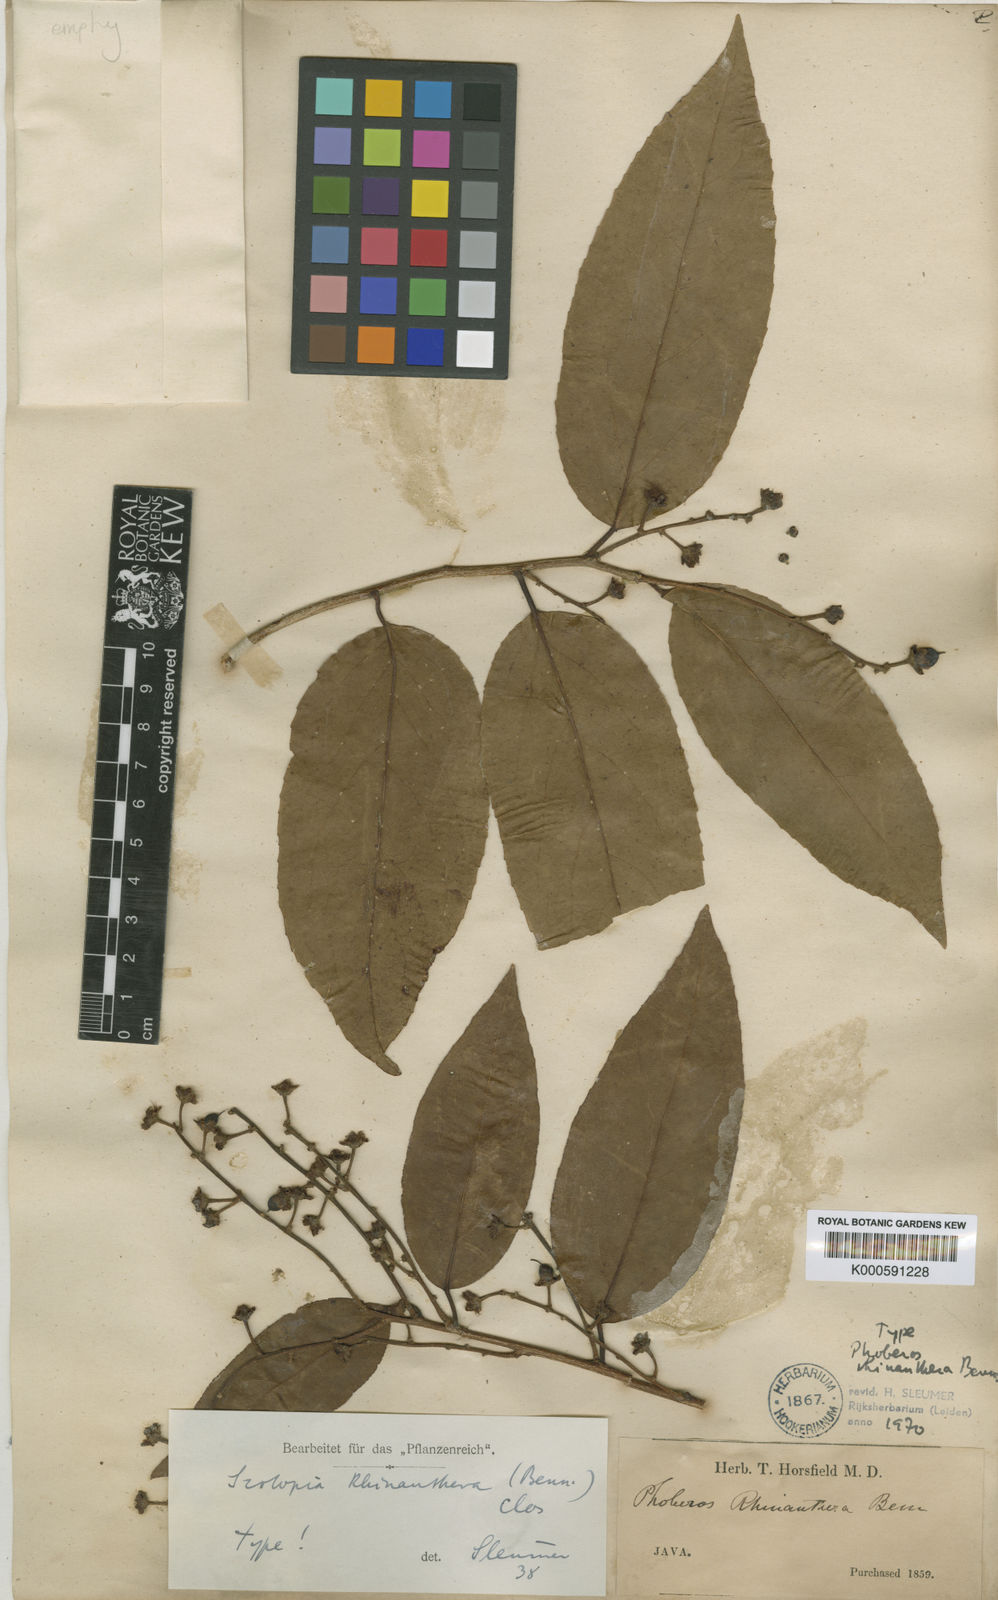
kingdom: Plantae
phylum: Tracheophyta
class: Magnoliopsida
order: Malpighiales
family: Salicaceae
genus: Scolopia
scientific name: Scolopia macrophylla
